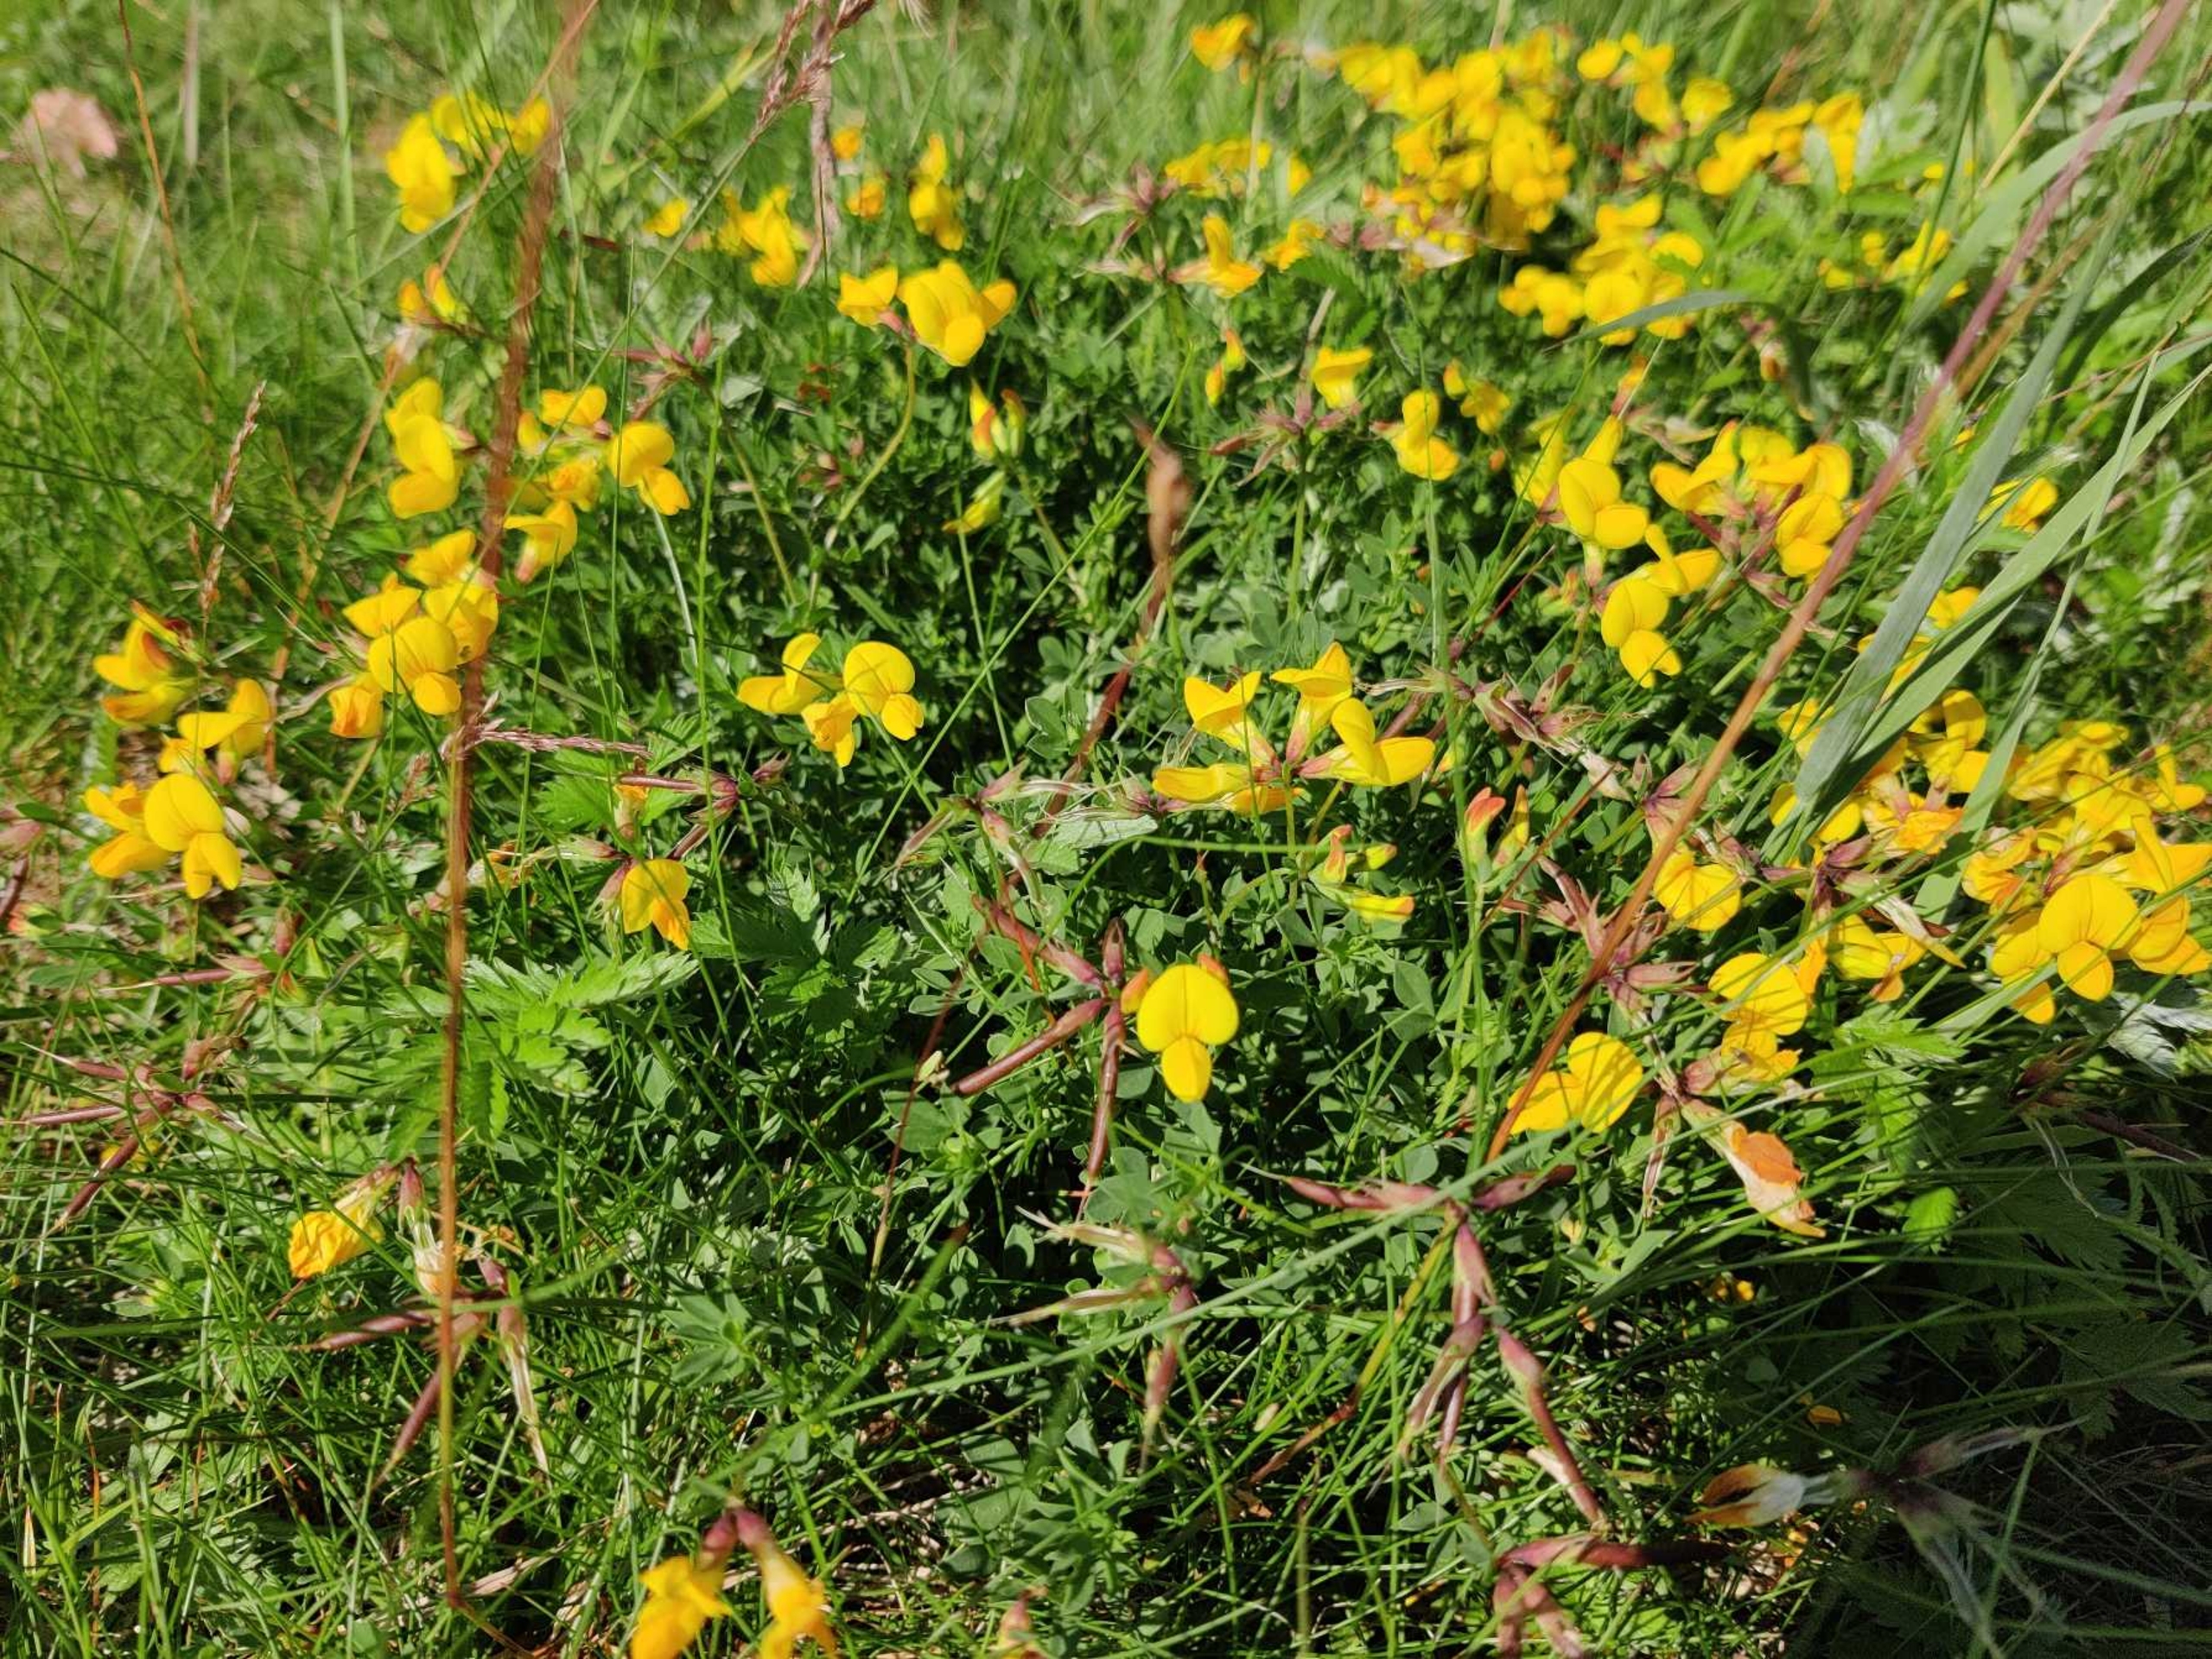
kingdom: Plantae
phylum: Tracheophyta
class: Magnoliopsida
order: Fabales
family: Fabaceae
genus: Lotus
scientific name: Lotus corniculatus
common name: Almindelig kællingetand
